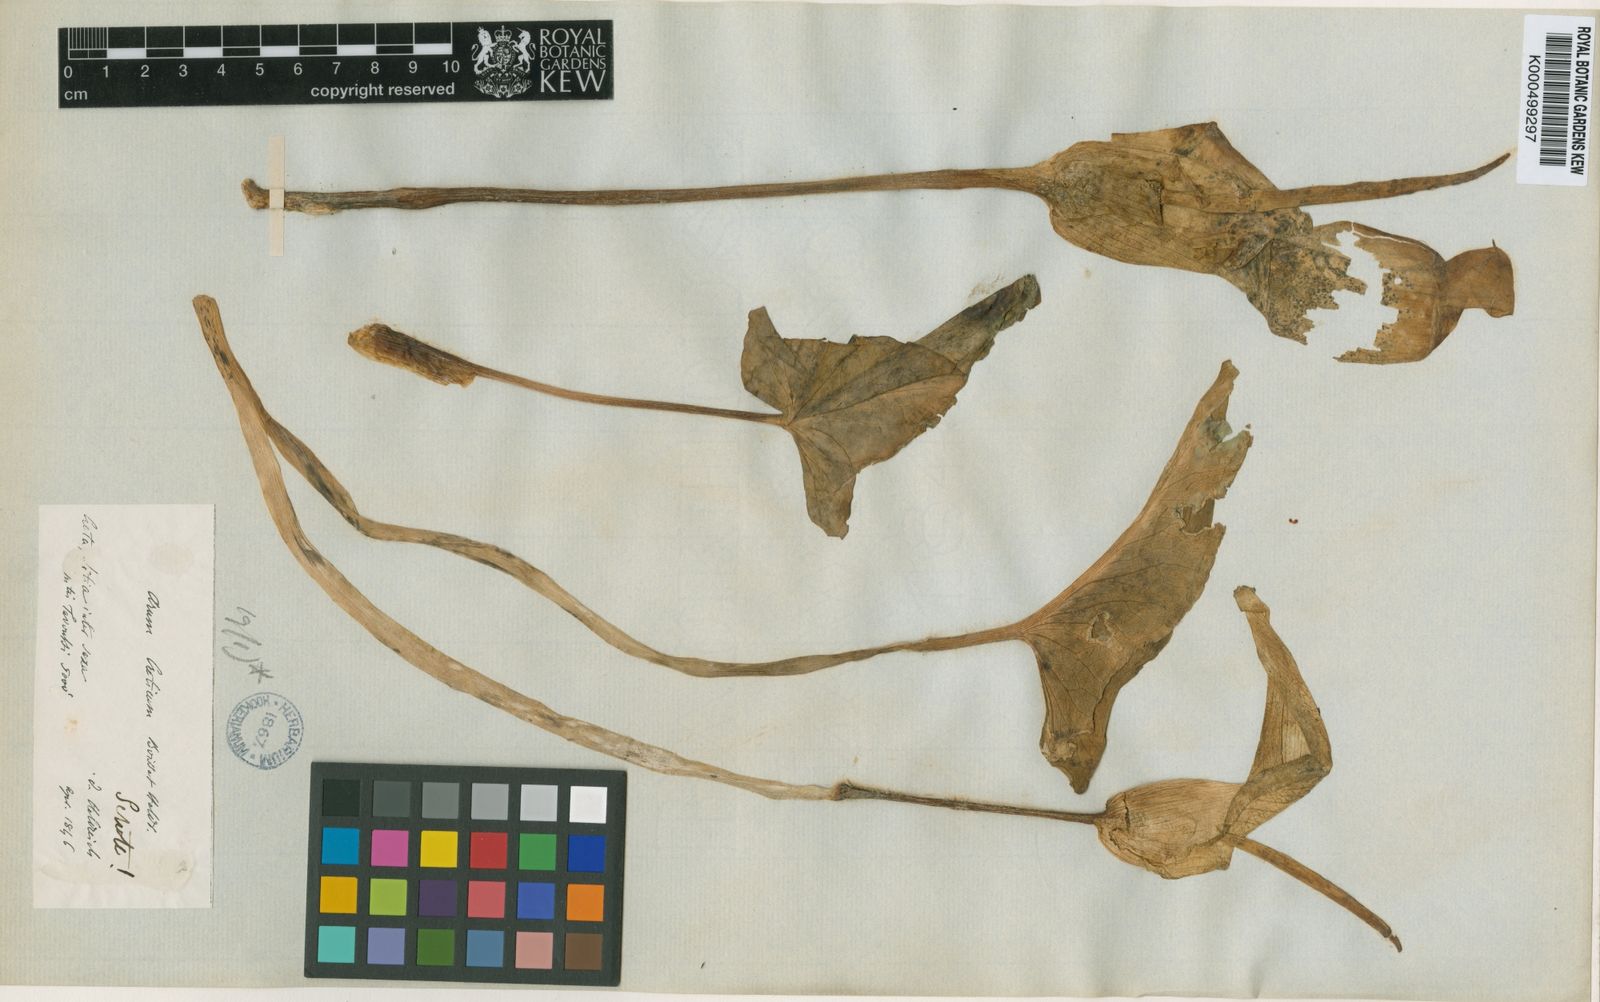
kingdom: Plantae
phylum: Tracheophyta
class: Liliopsida
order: Alismatales
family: Araceae
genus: Arum
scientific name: Arum creticum
